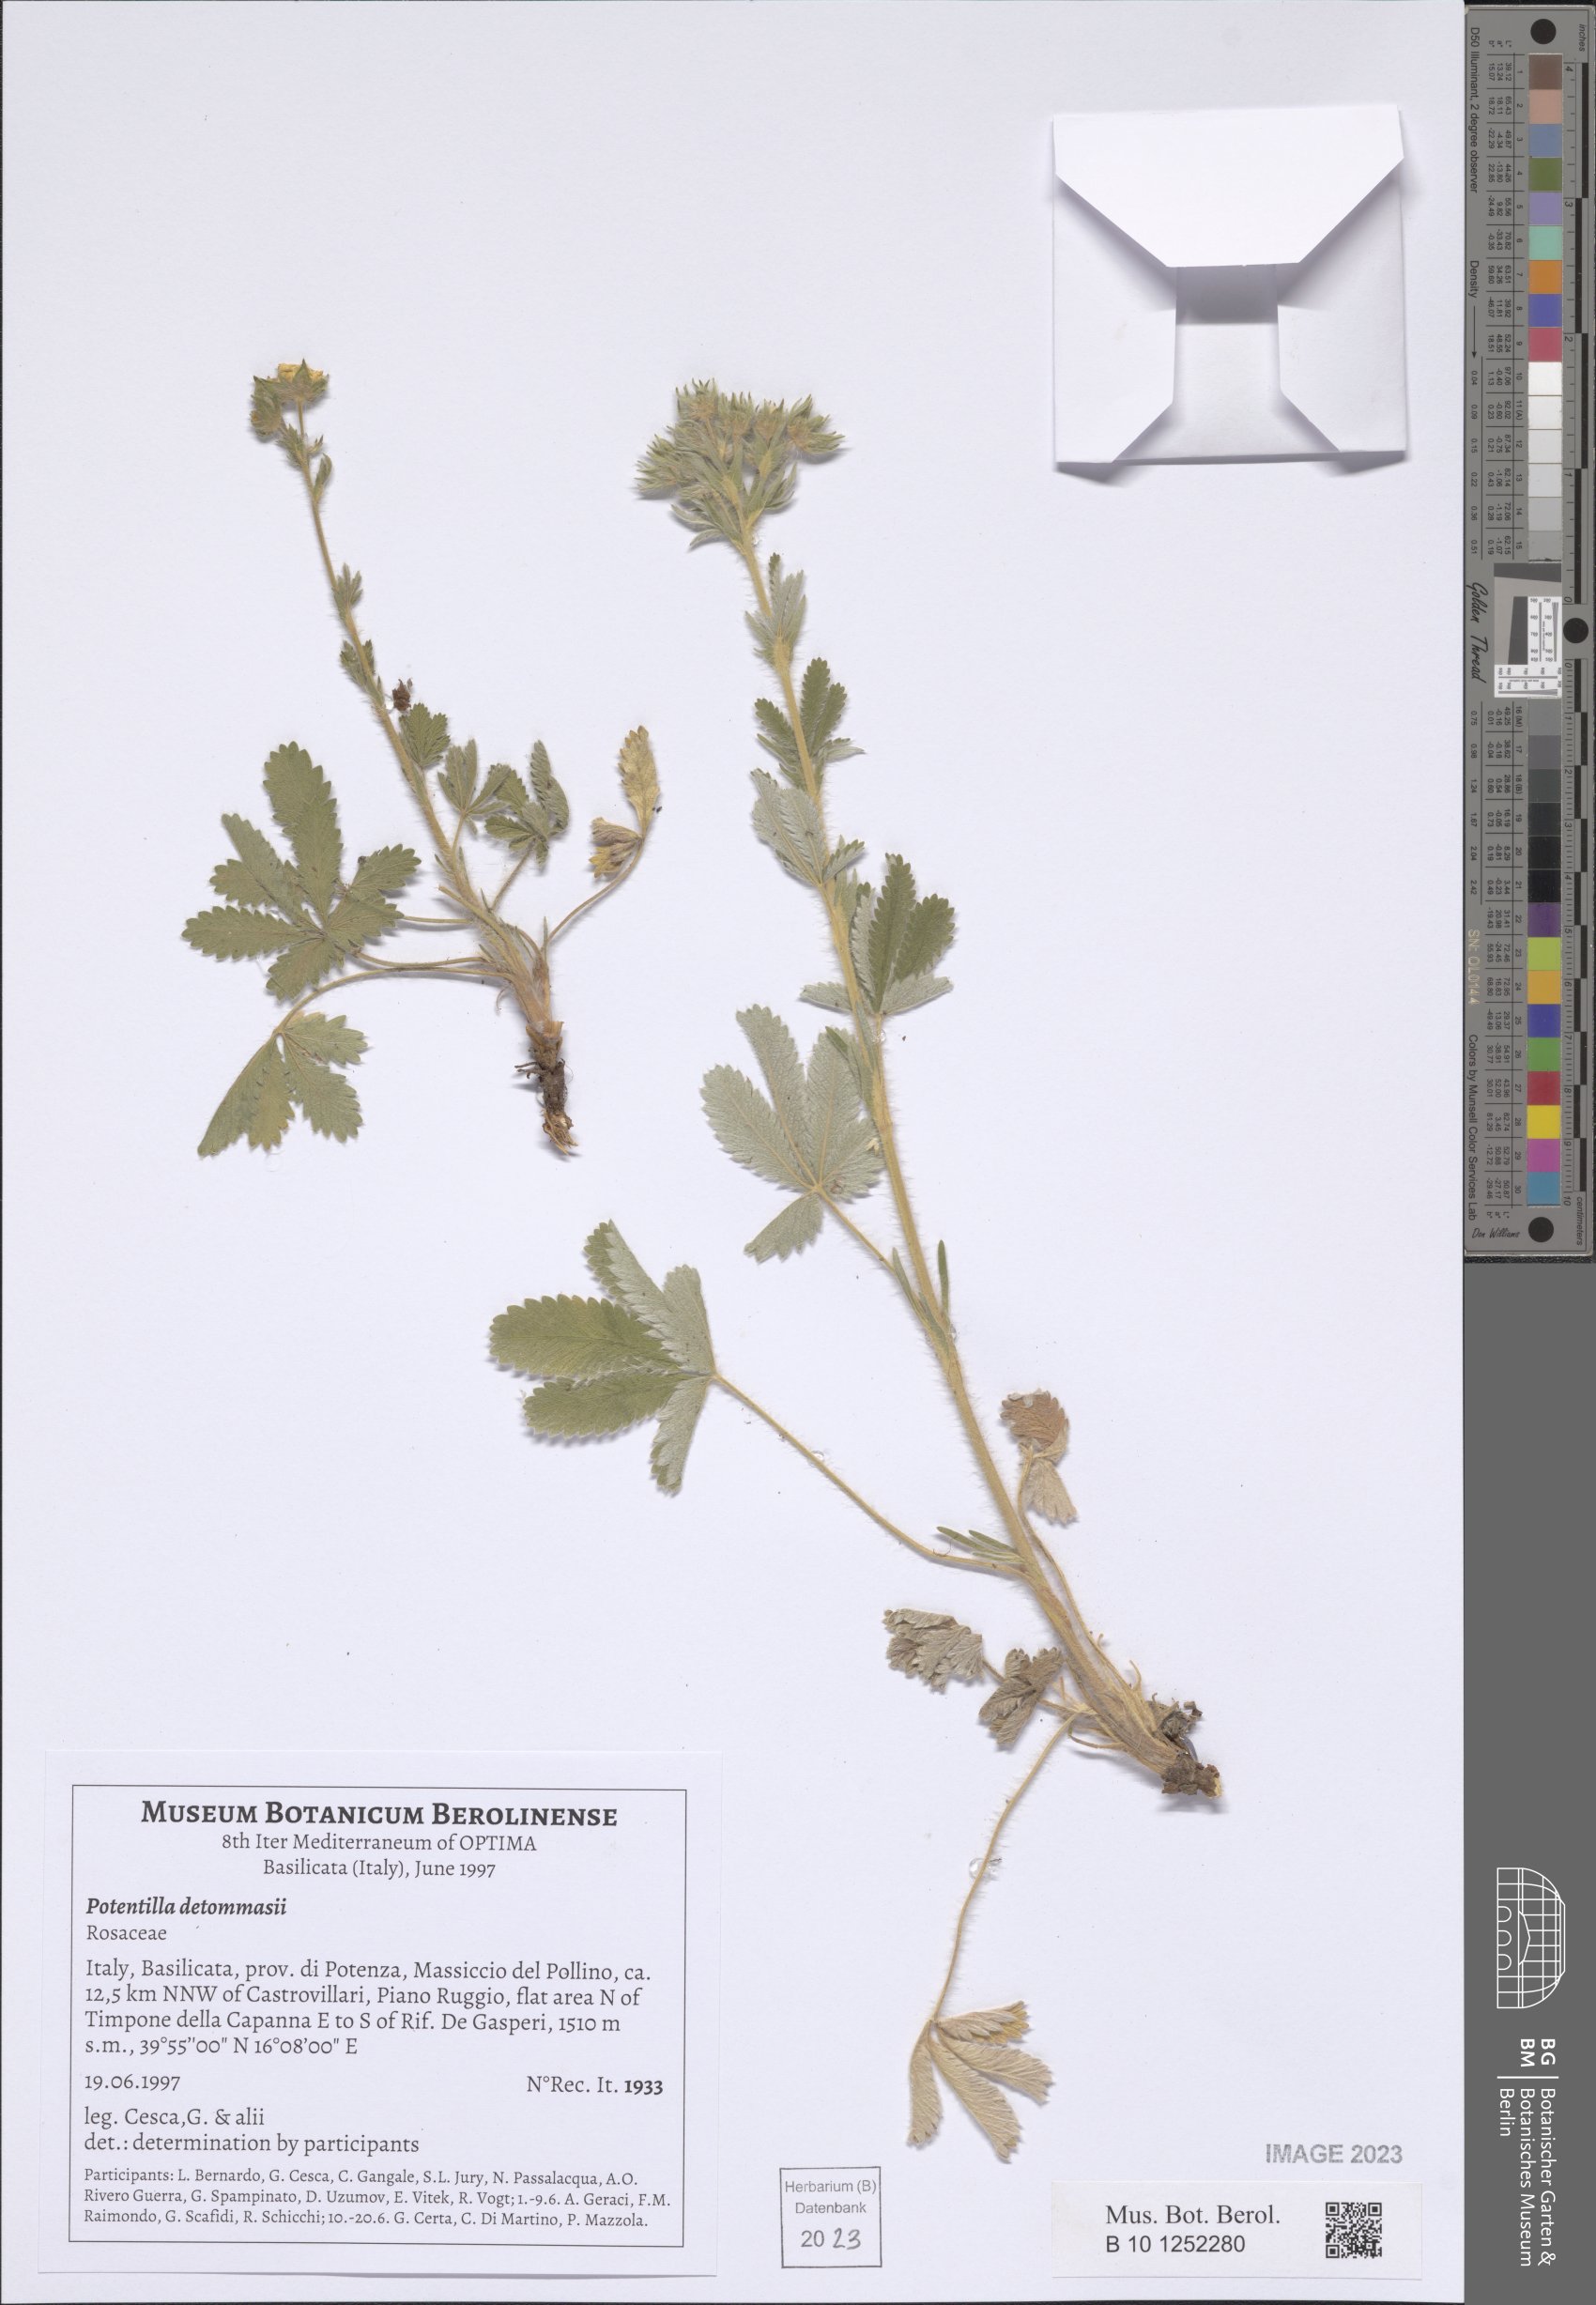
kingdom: Plantae
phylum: Tracheophyta
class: Magnoliopsida
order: Rosales
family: Rosaceae
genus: Potentilla
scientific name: Potentilla detommasii
